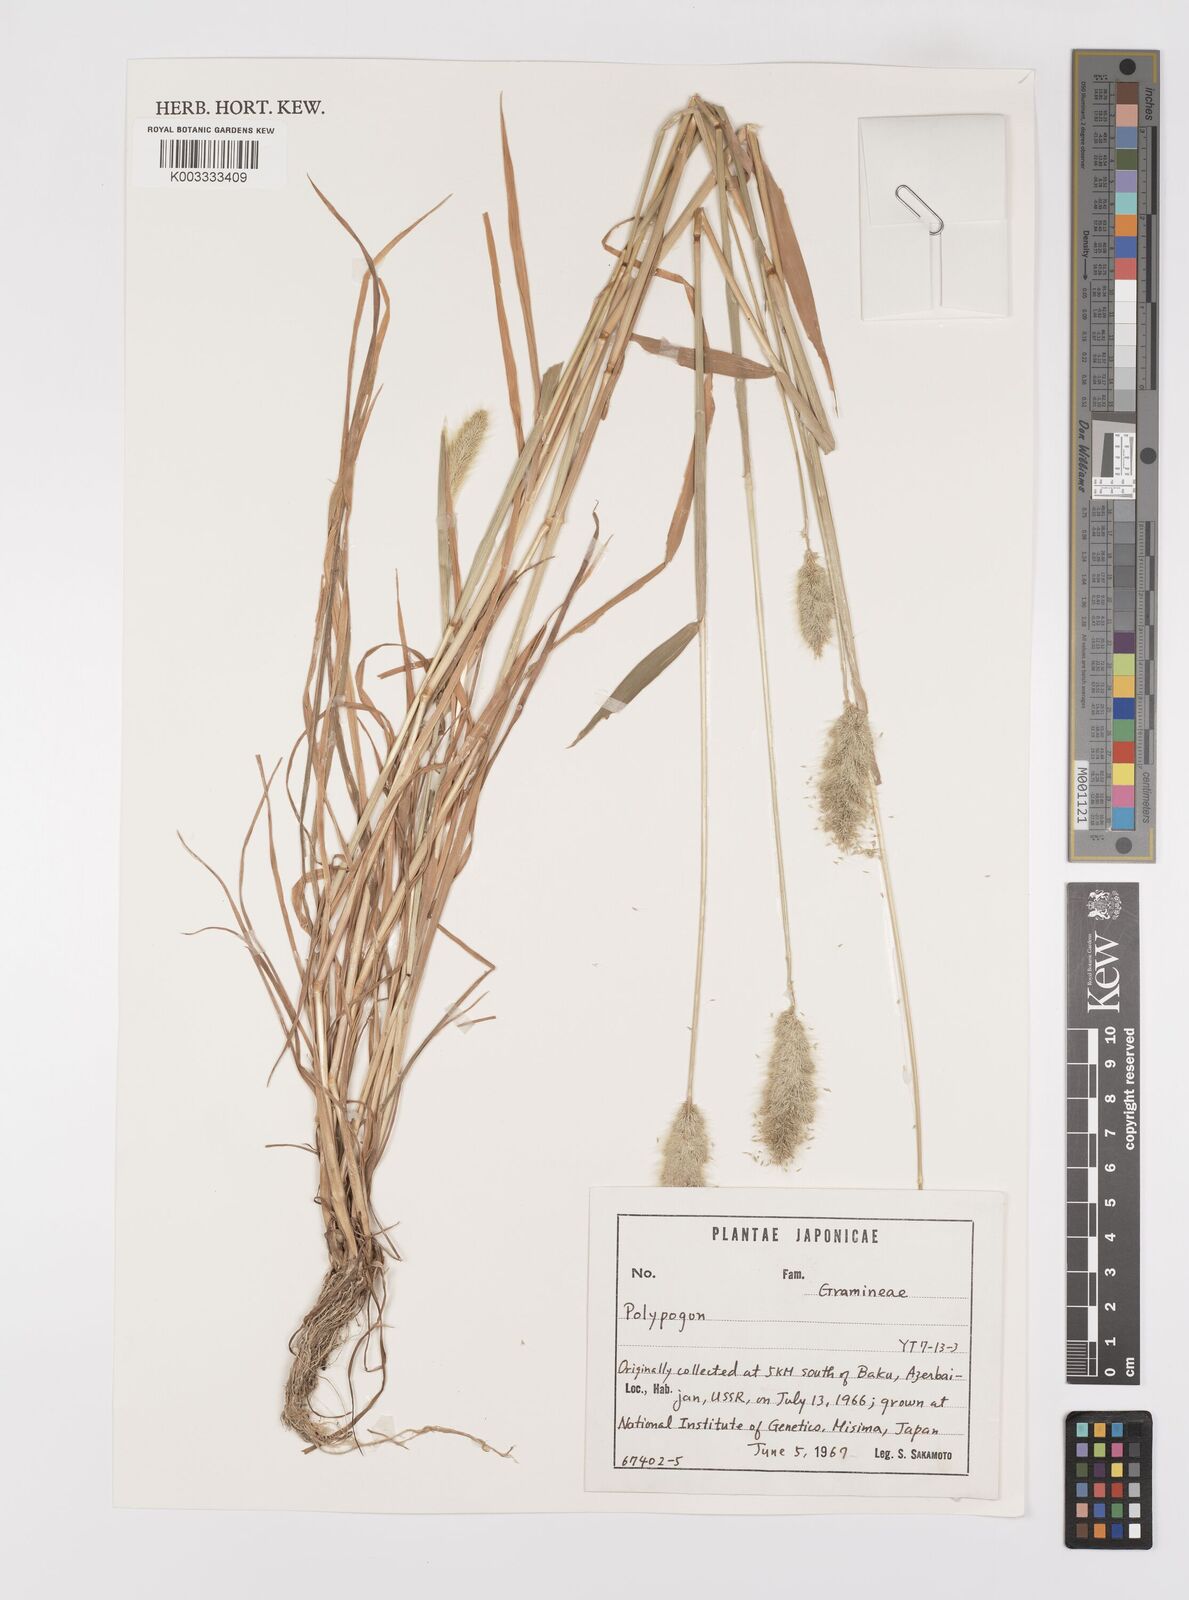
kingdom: Plantae
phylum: Tracheophyta
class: Liliopsida
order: Poales
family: Poaceae
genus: Polypogon
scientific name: Polypogon monspeliensis
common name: Annual rabbitsfoot grass
